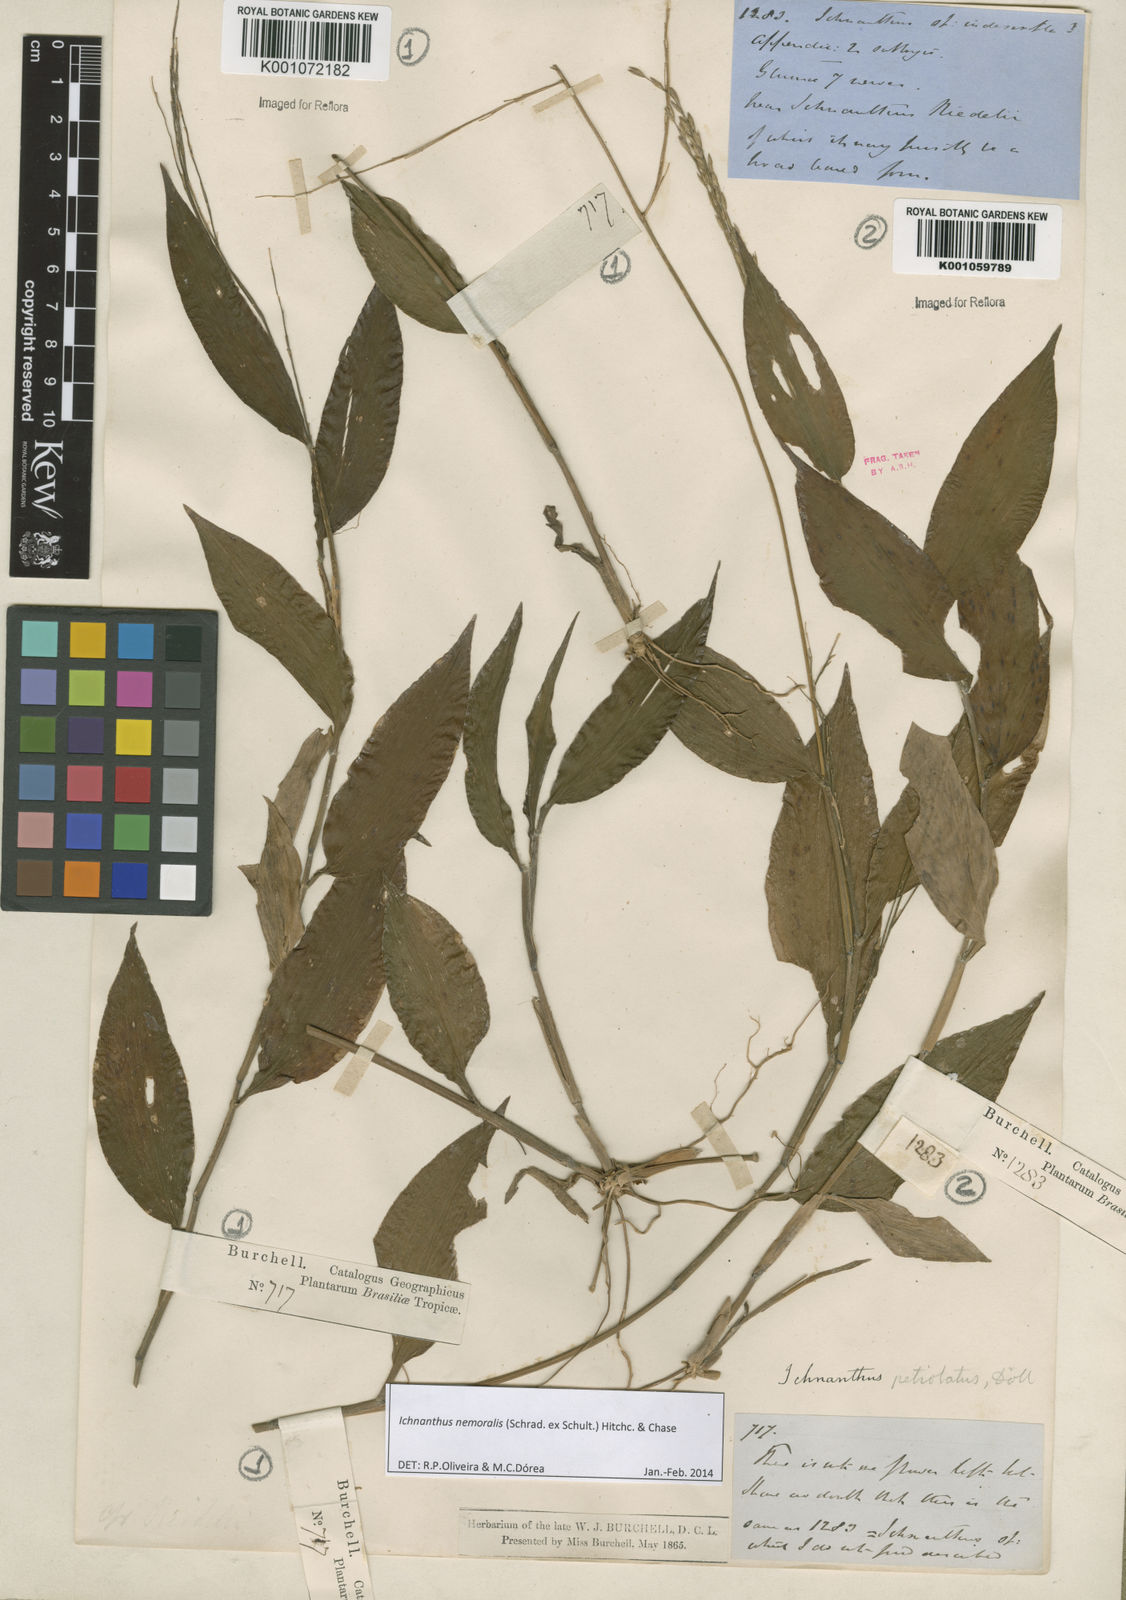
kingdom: Plantae
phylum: Tracheophyta
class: Liliopsida
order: Poales
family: Poaceae
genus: Ichnanthus
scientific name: Ichnanthus nemoralis
